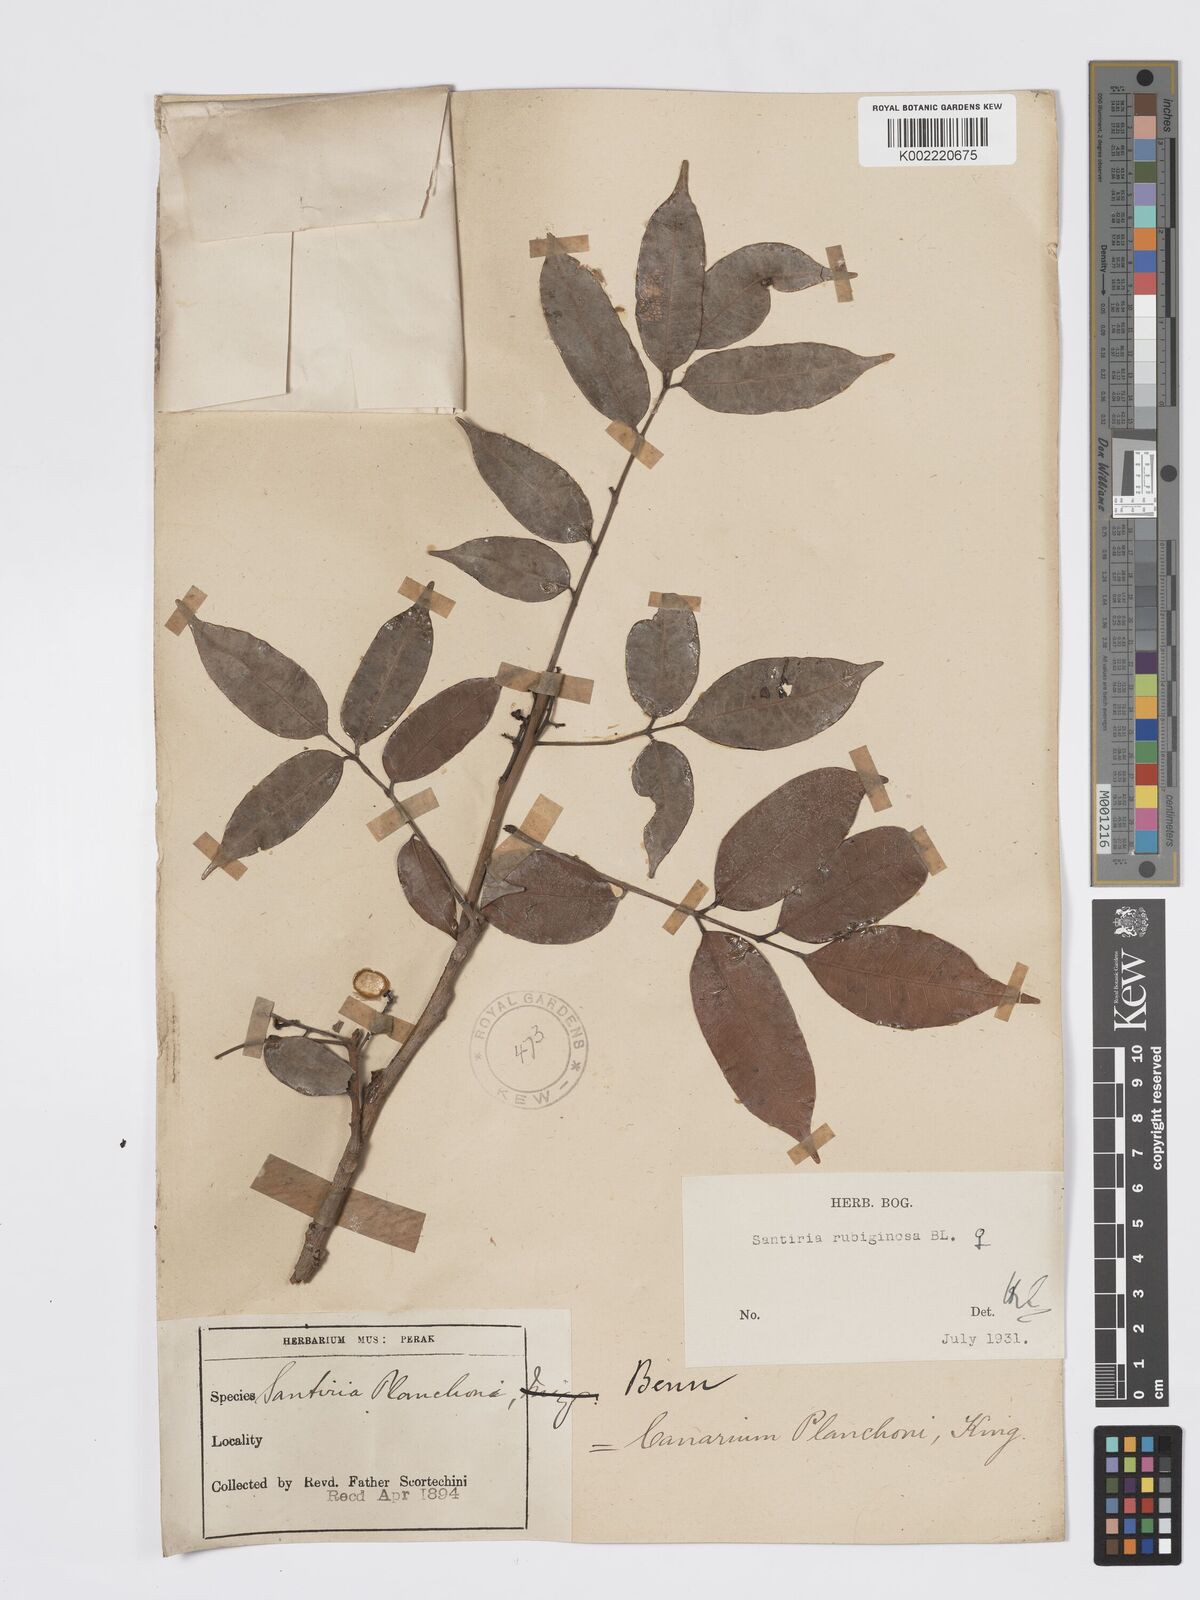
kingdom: Plantae
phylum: Tracheophyta
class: Magnoliopsida
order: Sapindales
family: Burseraceae
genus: Santiria
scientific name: Santiria rubiginosa
